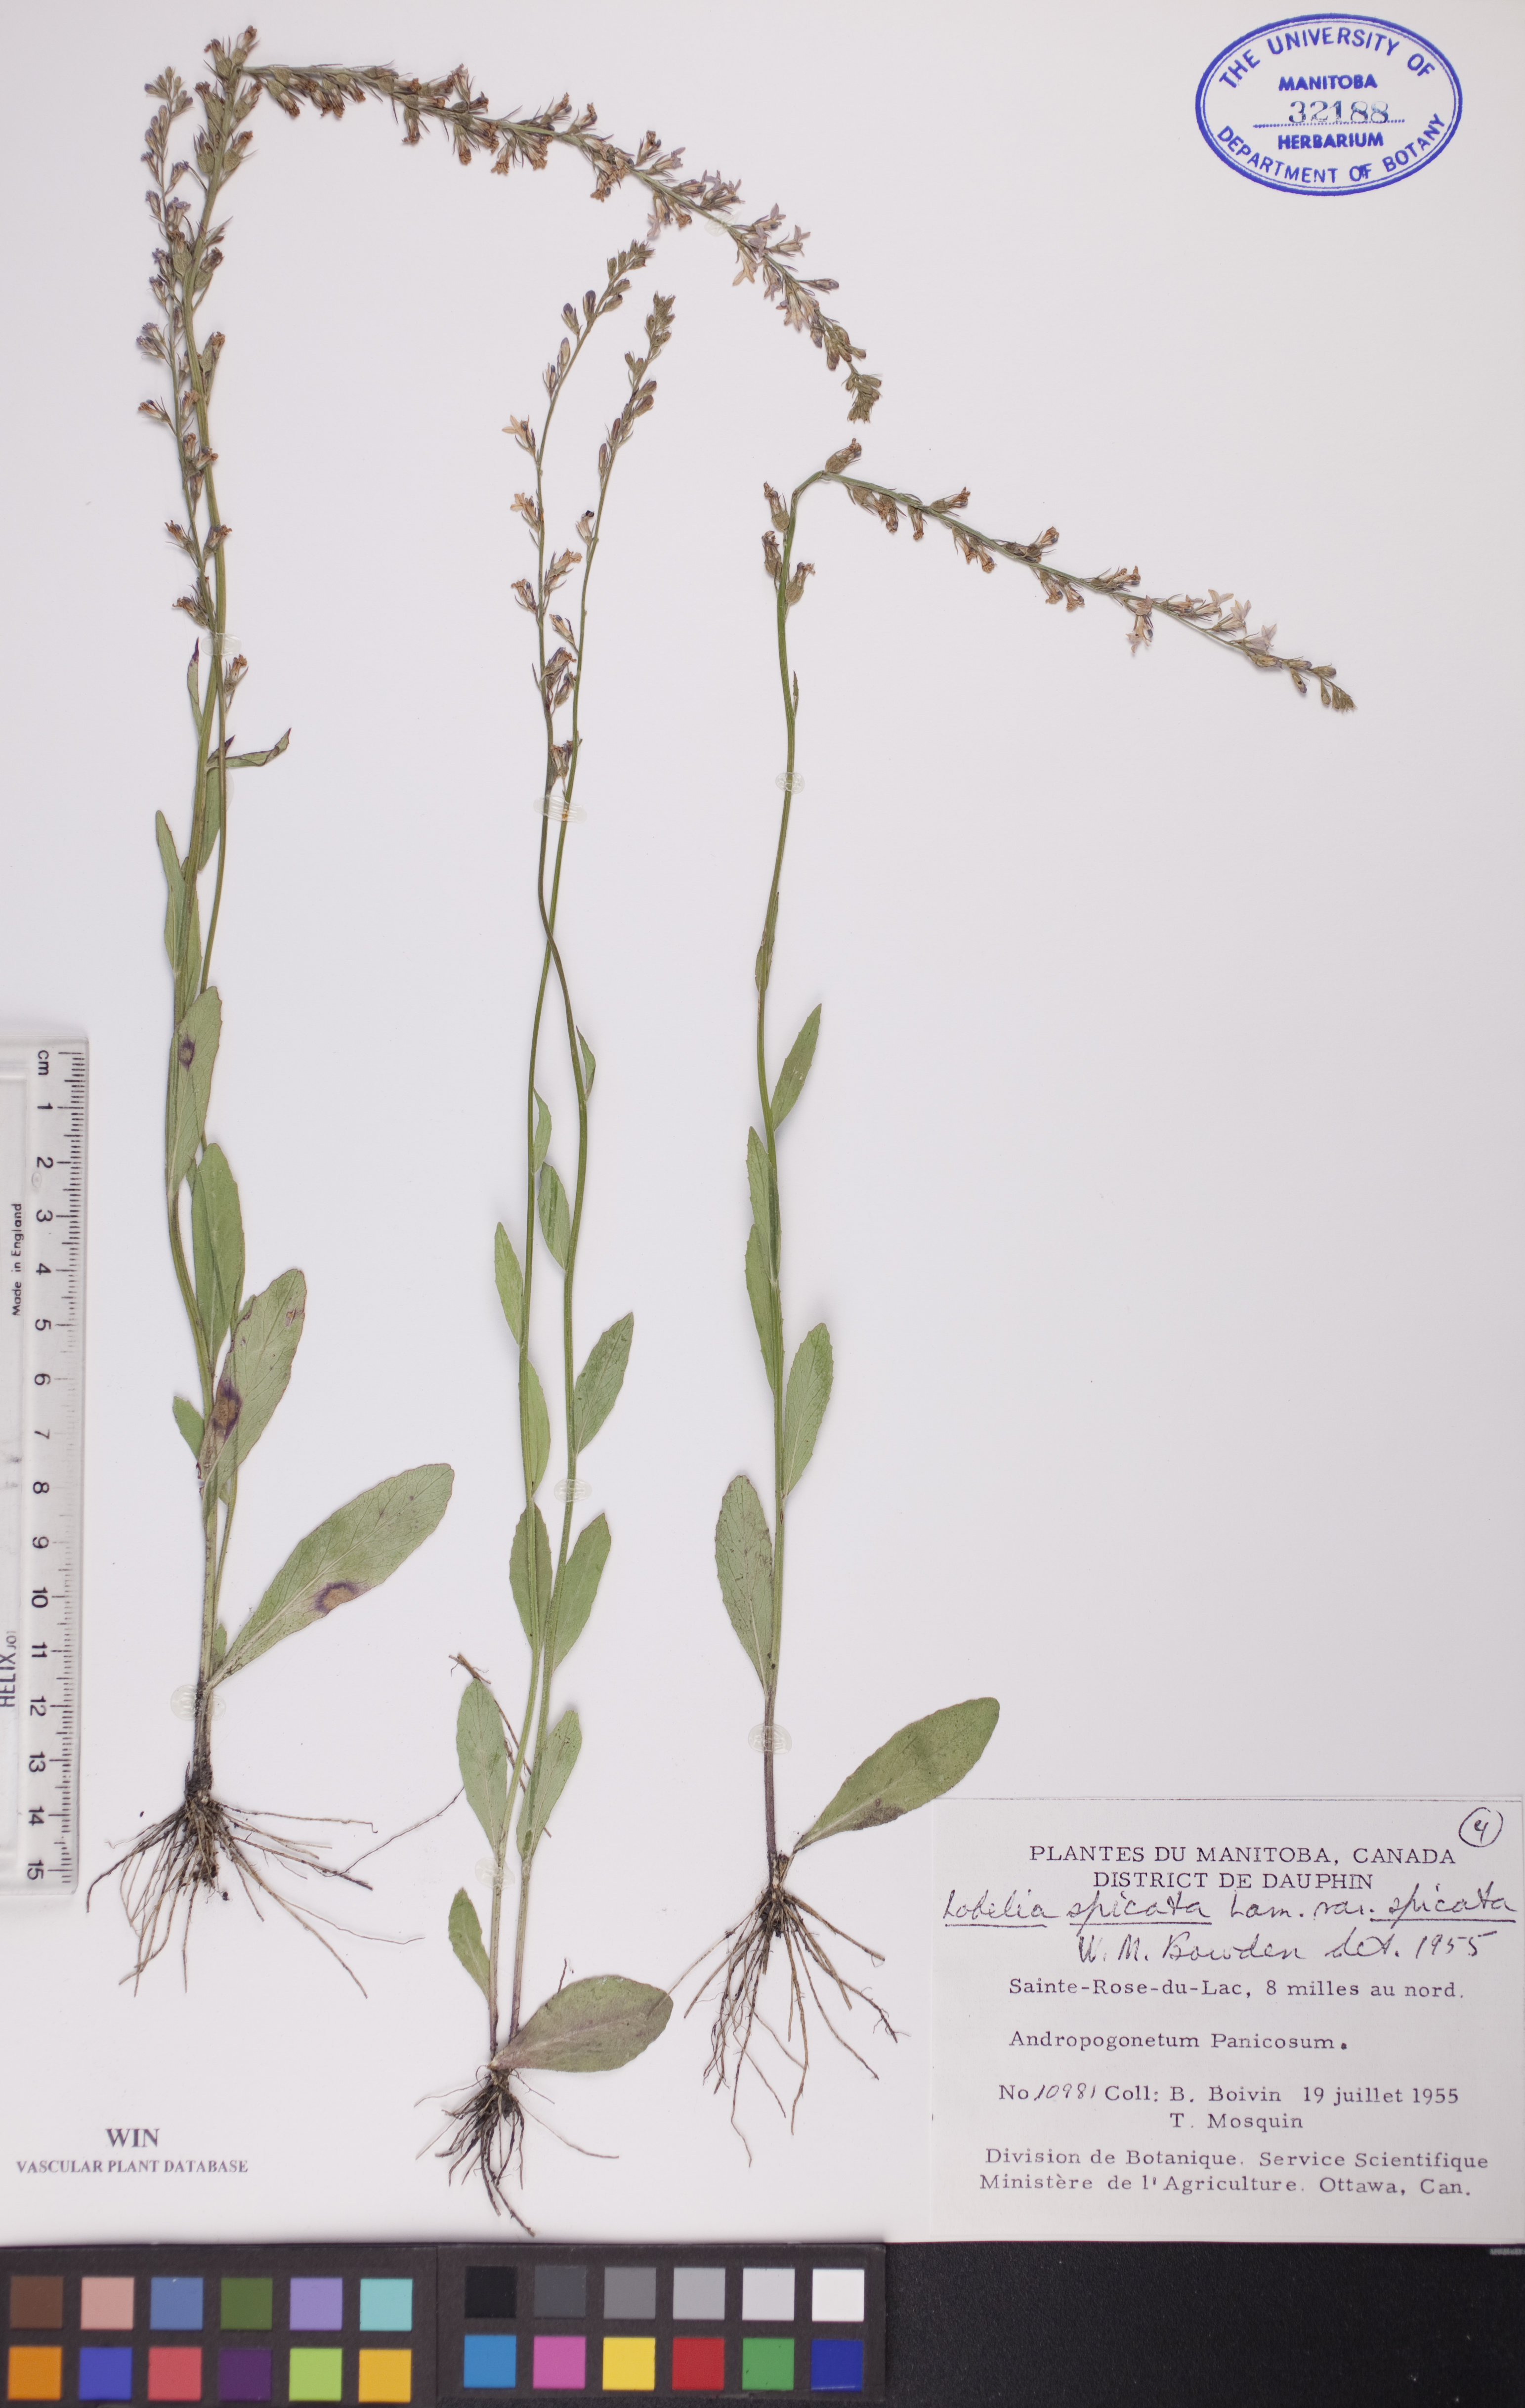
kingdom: Plantae
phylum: Tracheophyta
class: Magnoliopsida
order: Asterales
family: Campanulaceae
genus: Lobelia
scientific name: Lobelia spicata
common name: Pale-spike lobelia
